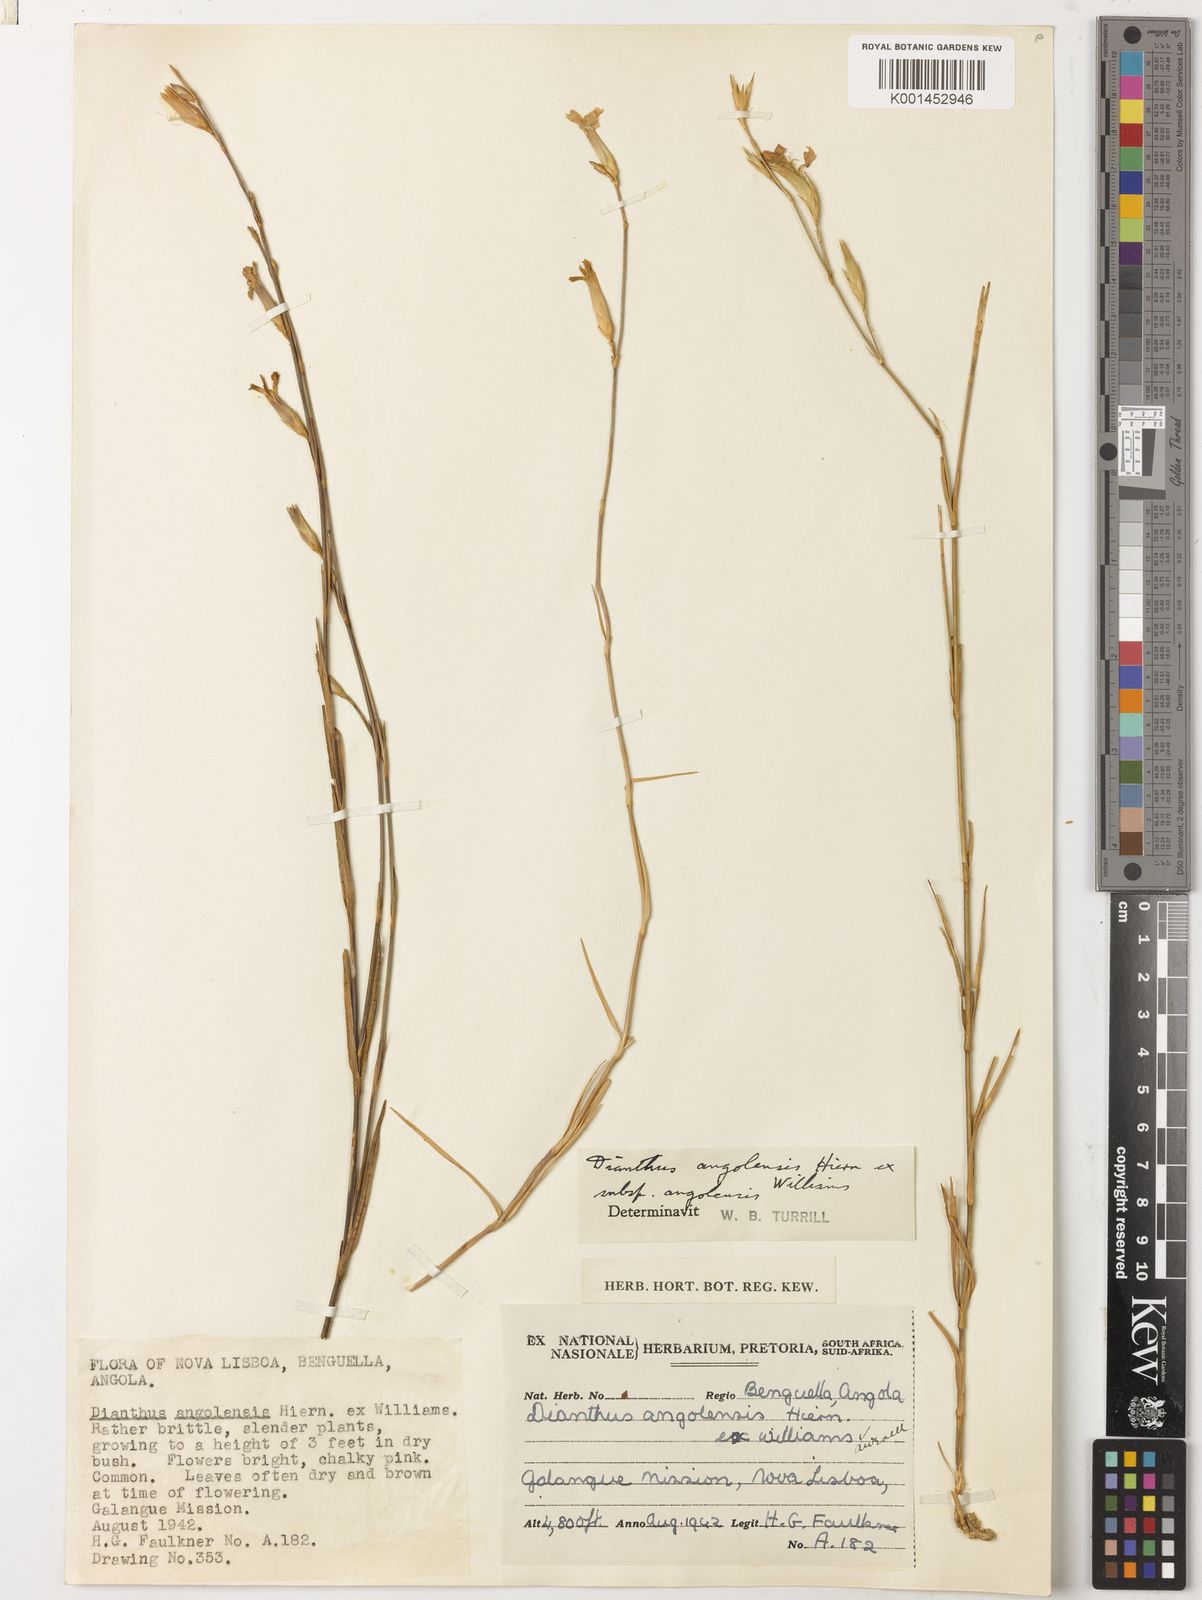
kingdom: Plantae
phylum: Tracheophyta
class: Magnoliopsida
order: Caryophyllales
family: Caryophyllaceae
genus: Dianthus
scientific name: Dianthus angolensis
